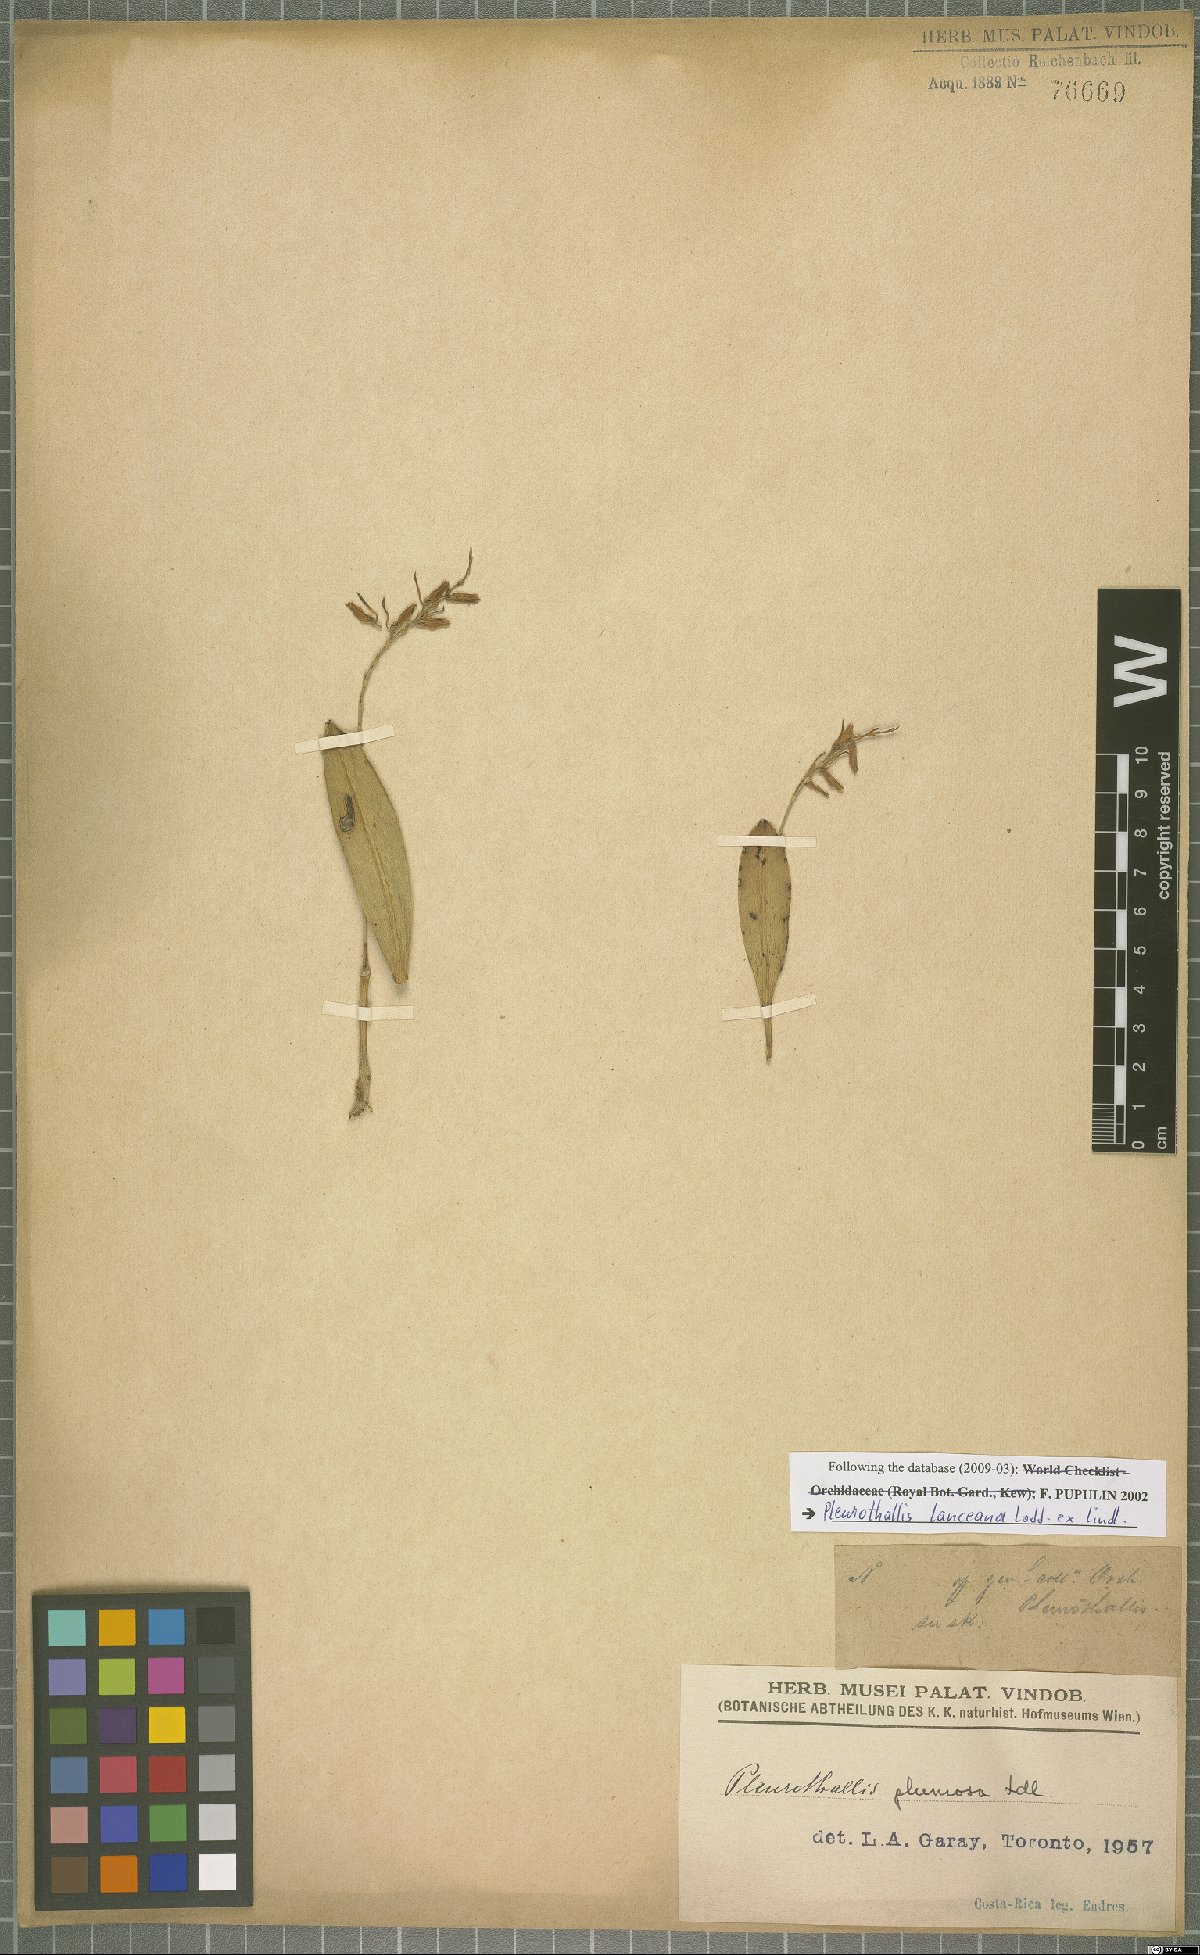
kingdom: Plantae
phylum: Tracheophyta
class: Liliopsida
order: Asparagales
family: Orchidaceae
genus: Acianthera
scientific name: Acianthera ciliata
